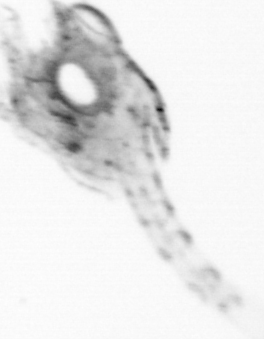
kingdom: Animalia
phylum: Arthropoda
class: Copepoda
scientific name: Copepoda
